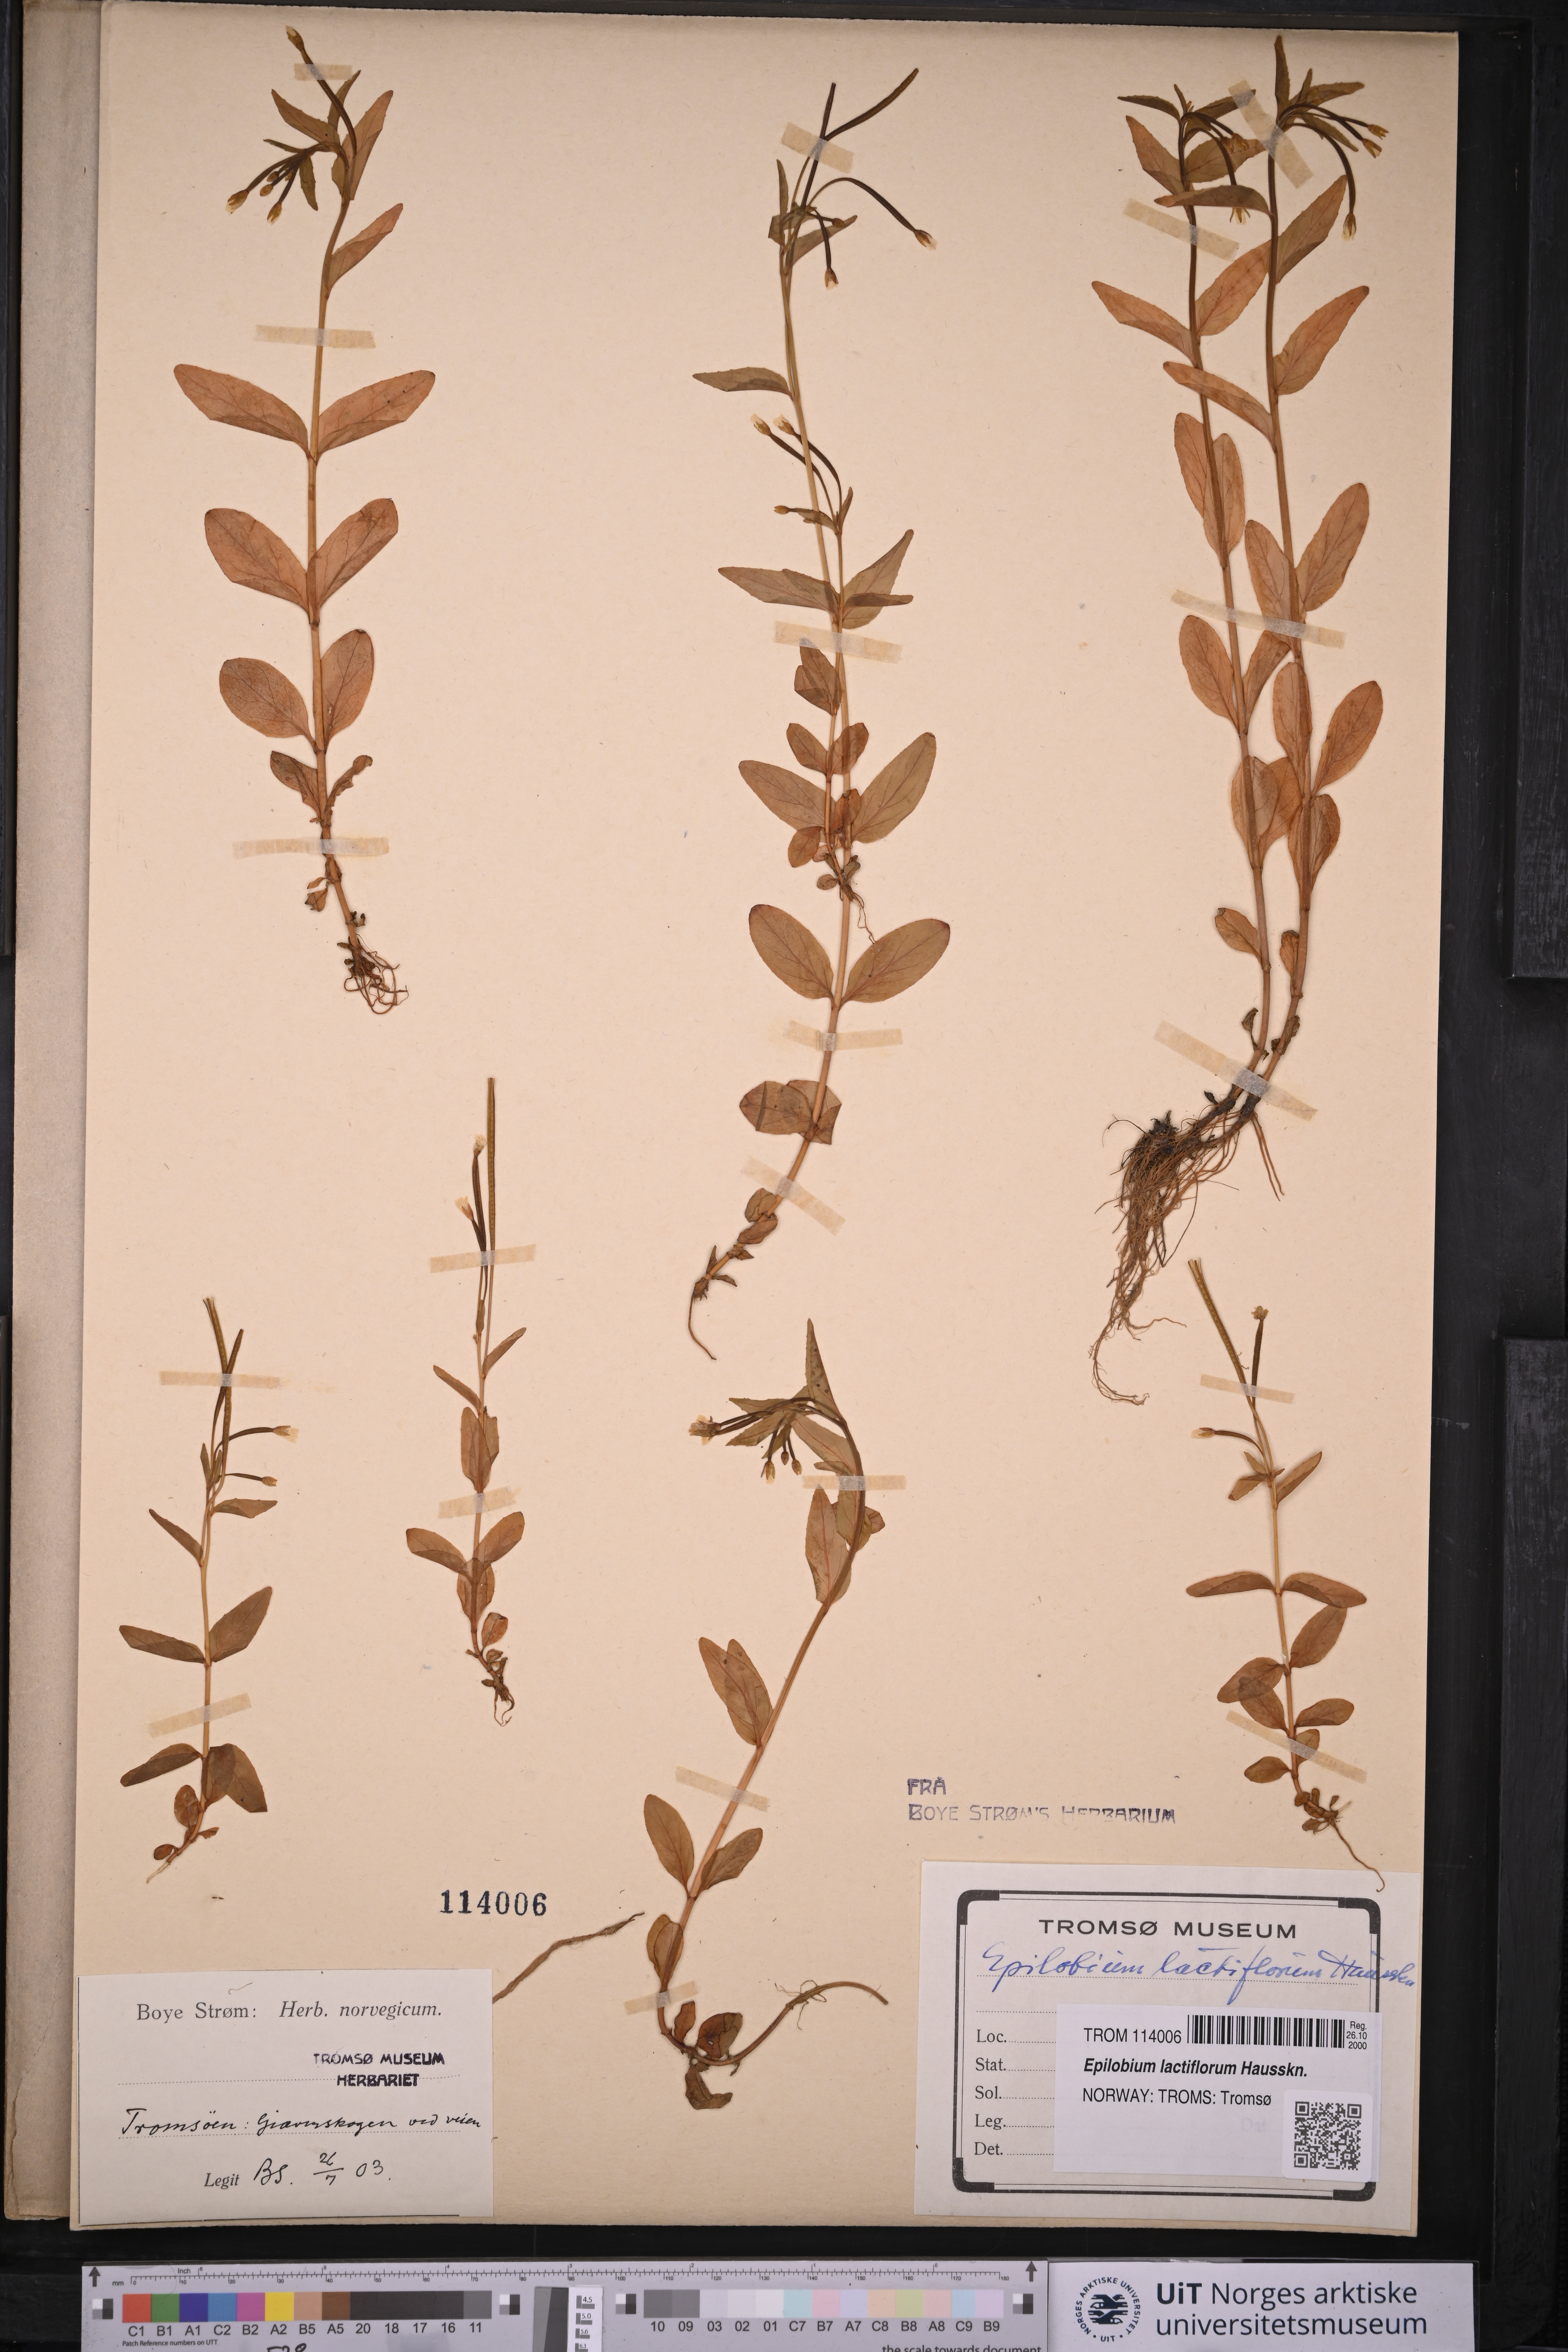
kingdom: Plantae
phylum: Tracheophyta
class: Magnoliopsida
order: Myrtales
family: Onagraceae
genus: Epilobium
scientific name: Epilobium lactiflorum
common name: Milkflower willowherb
